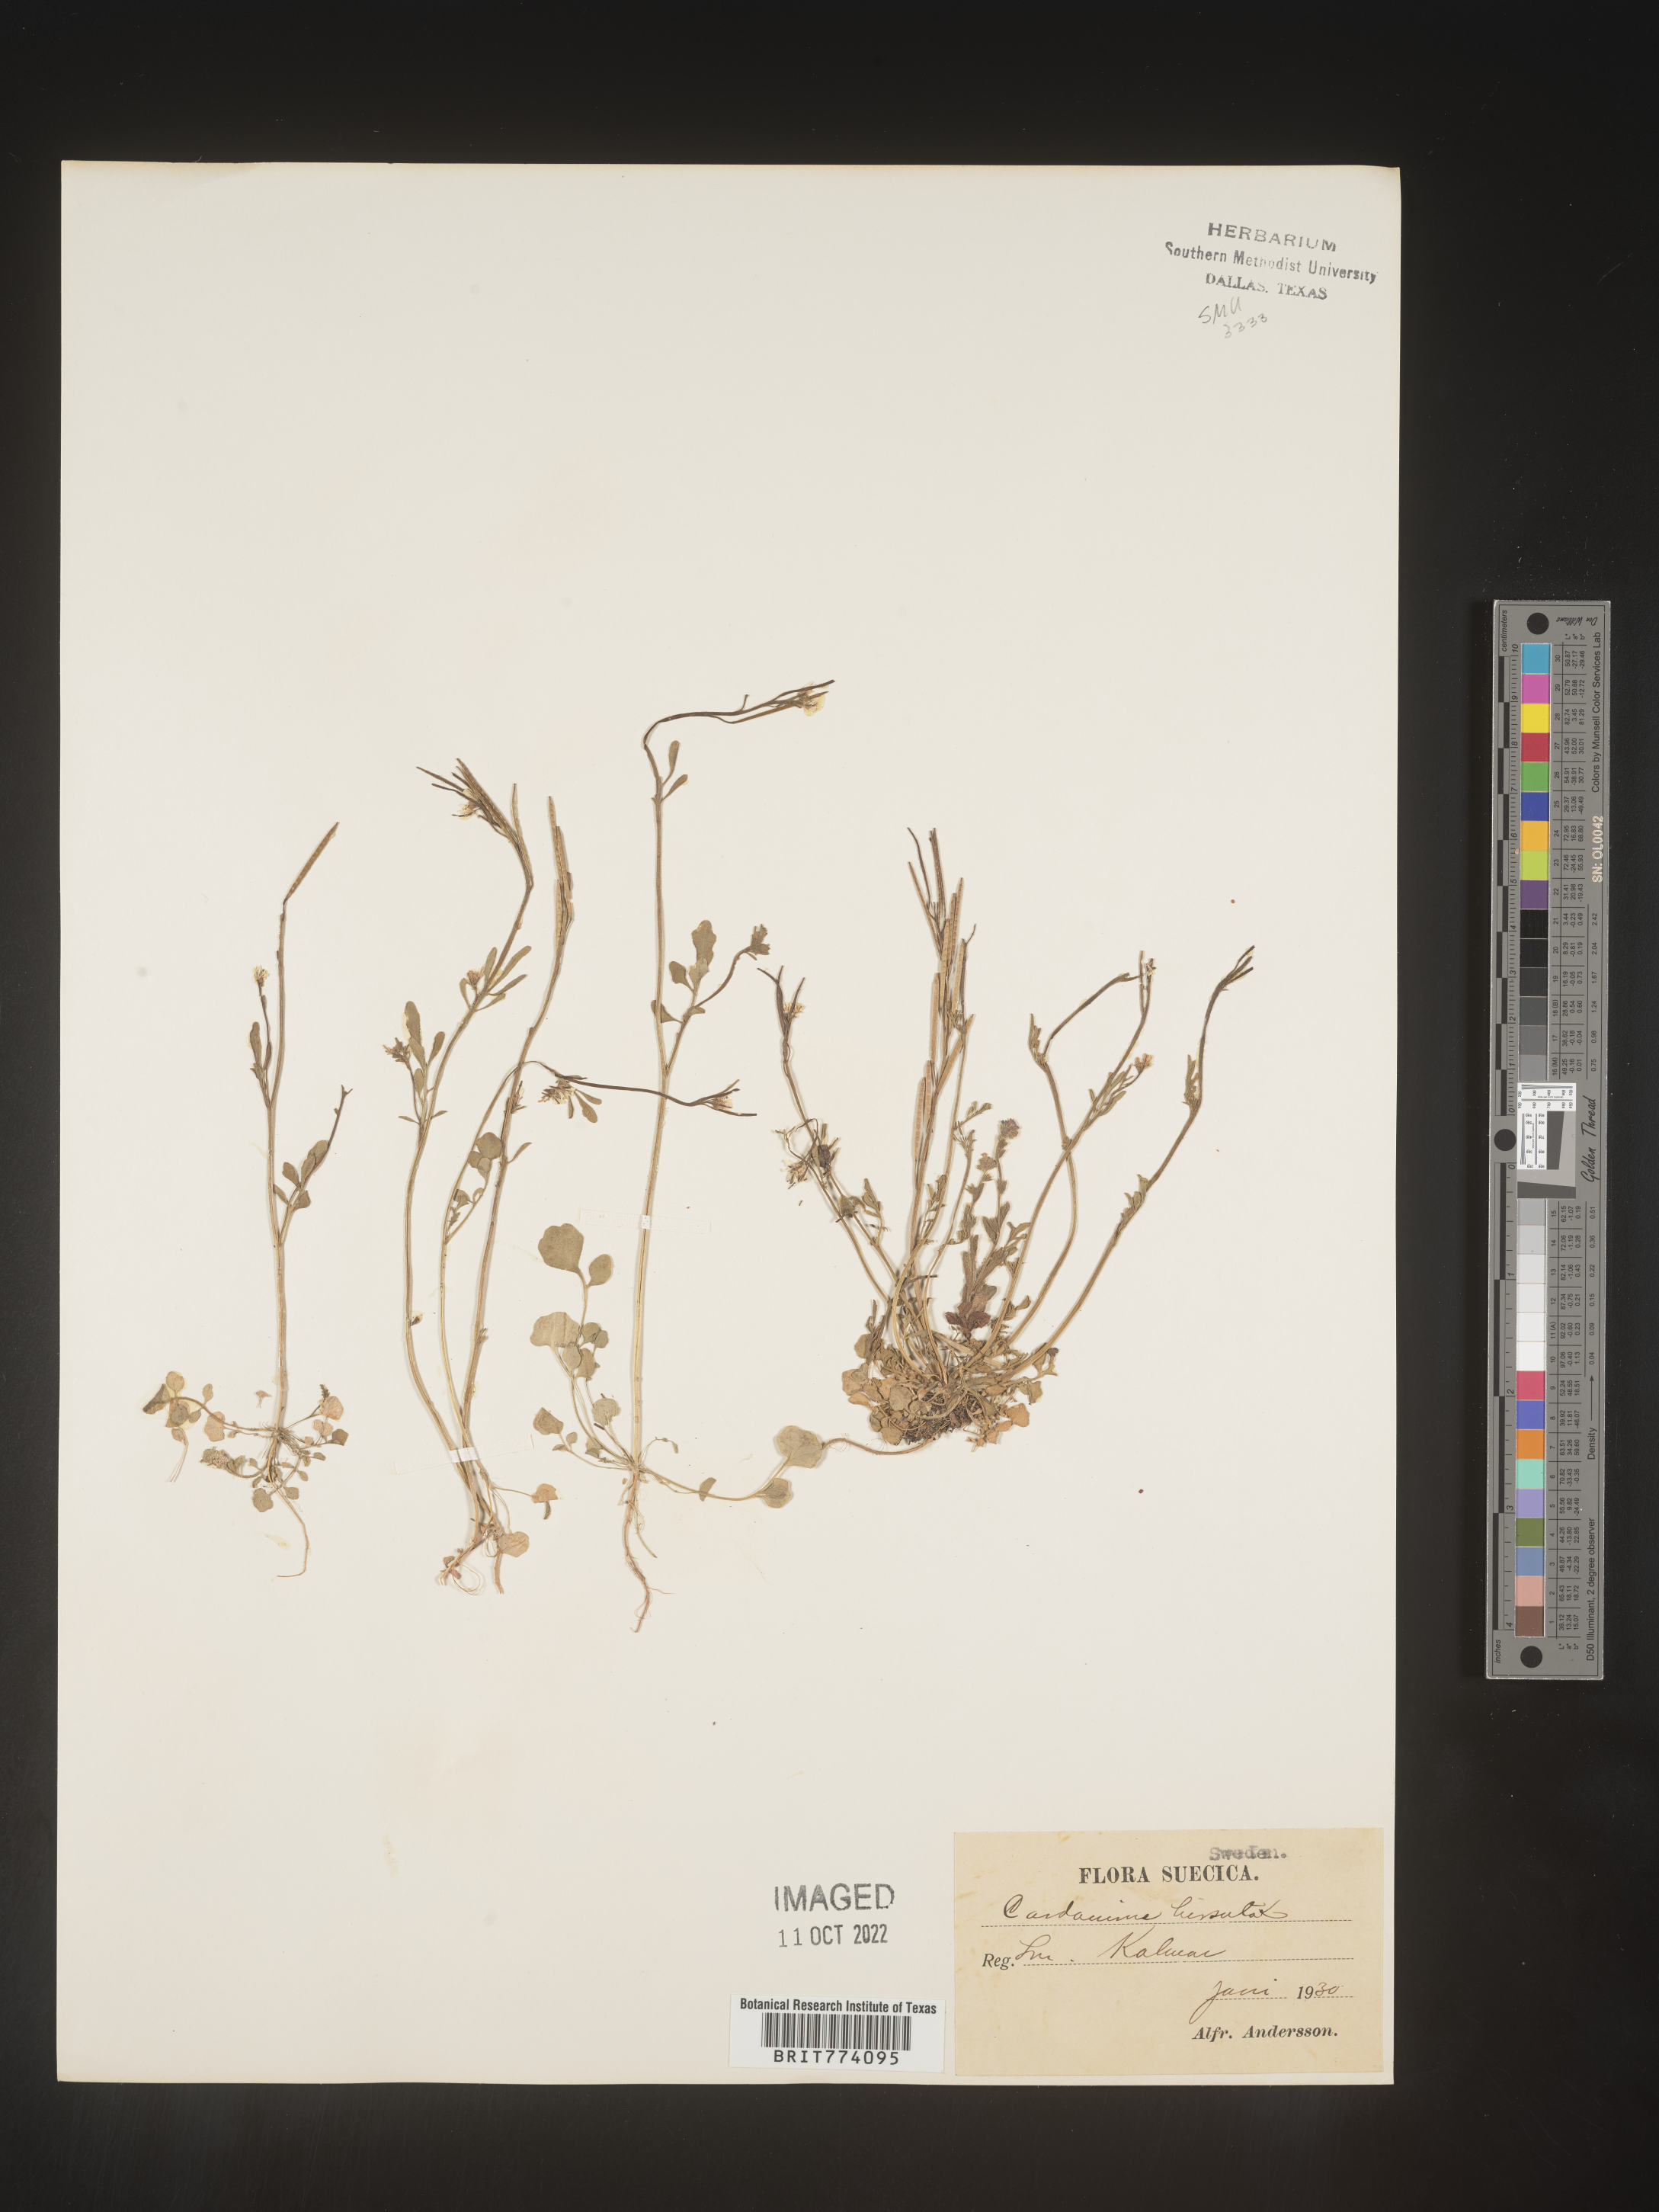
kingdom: Plantae
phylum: Tracheophyta
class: Magnoliopsida
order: Brassicales
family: Brassicaceae
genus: Cardamine
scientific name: Cardamine hirsuta
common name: Hairy bittercress
